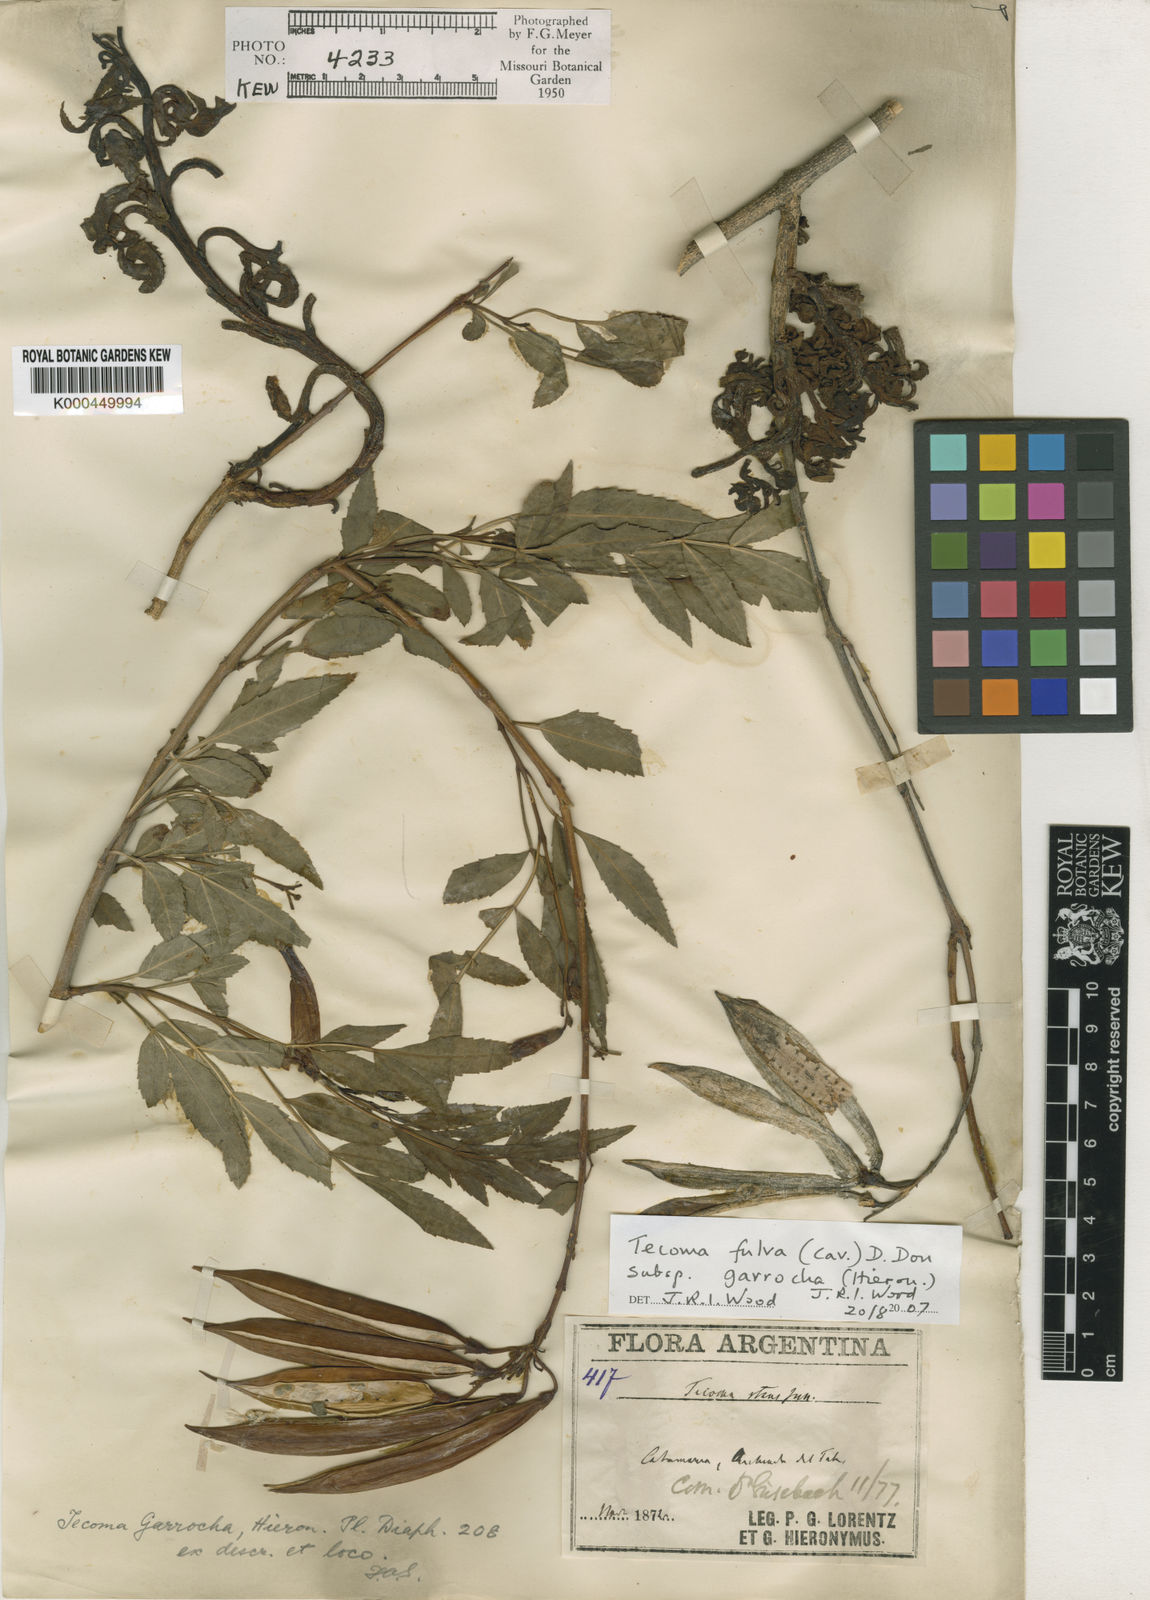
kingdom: Plantae
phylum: Tracheophyta
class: Magnoliopsida
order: Lamiales
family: Bignoniaceae
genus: Tecoma
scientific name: Tecoma fulva
